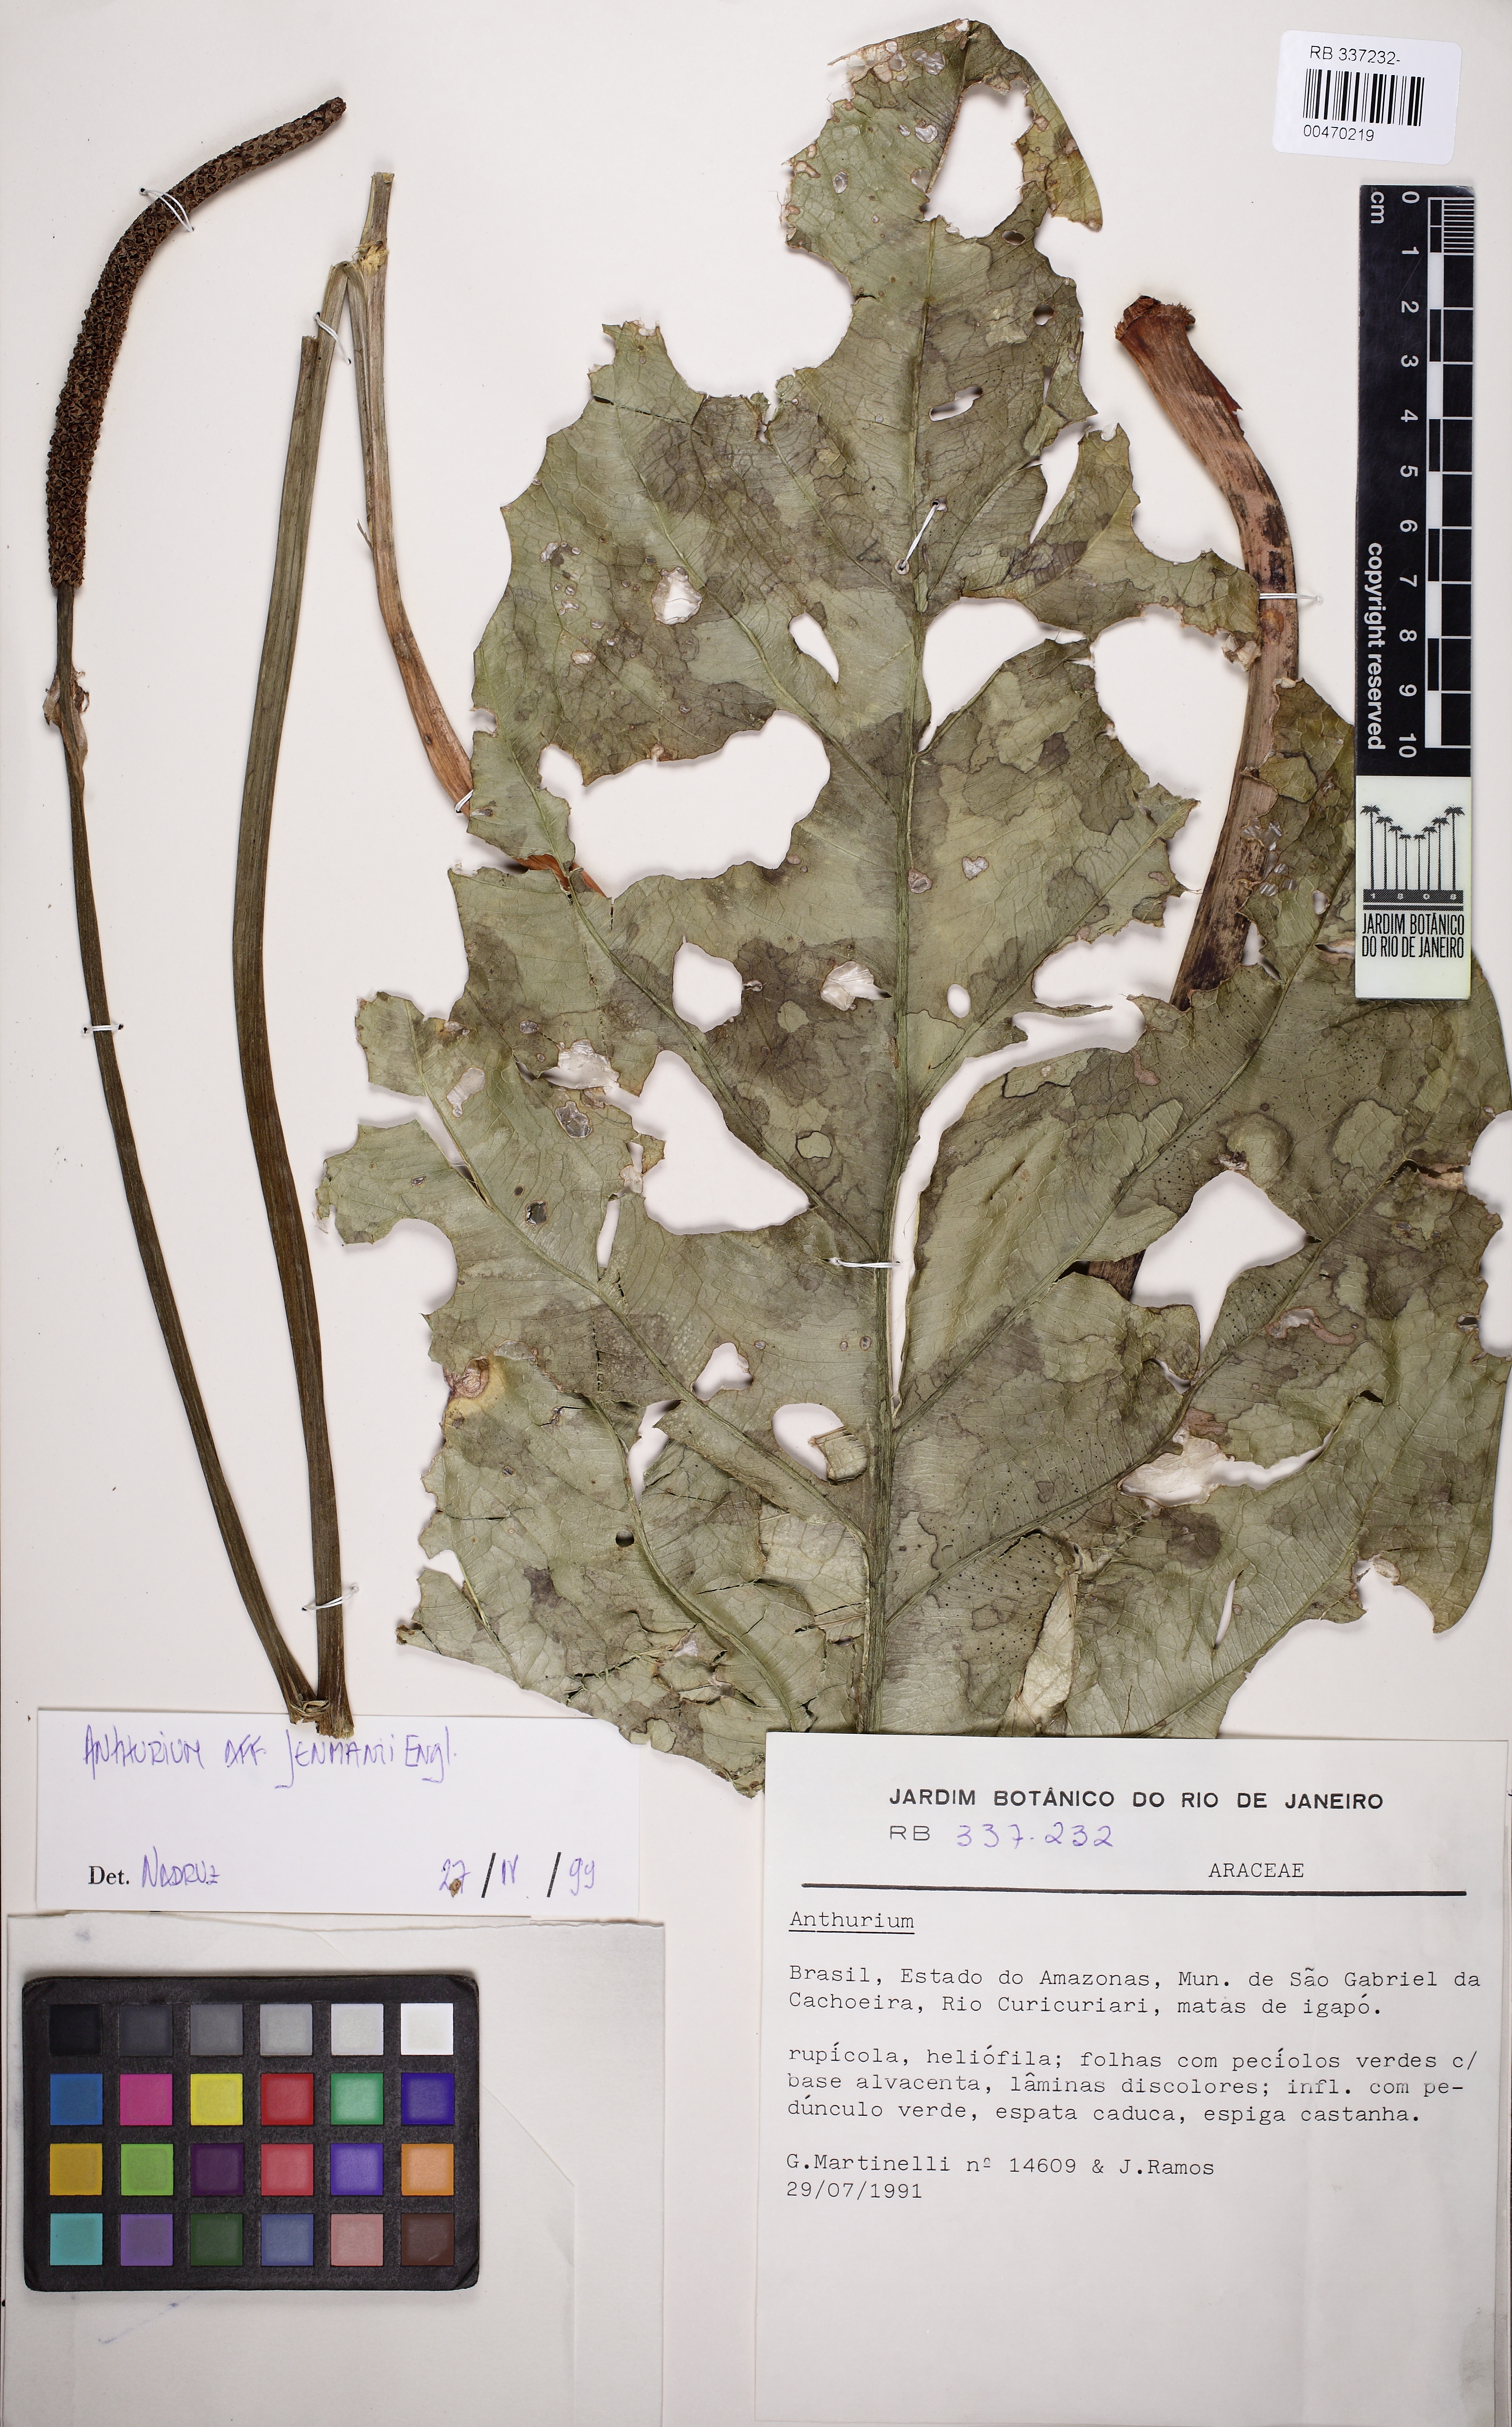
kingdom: Plantae
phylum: Tracheophyta
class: Liliopsida
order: Alismatales
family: Araceae
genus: Anthurium
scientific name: Anthurium jenmanii
